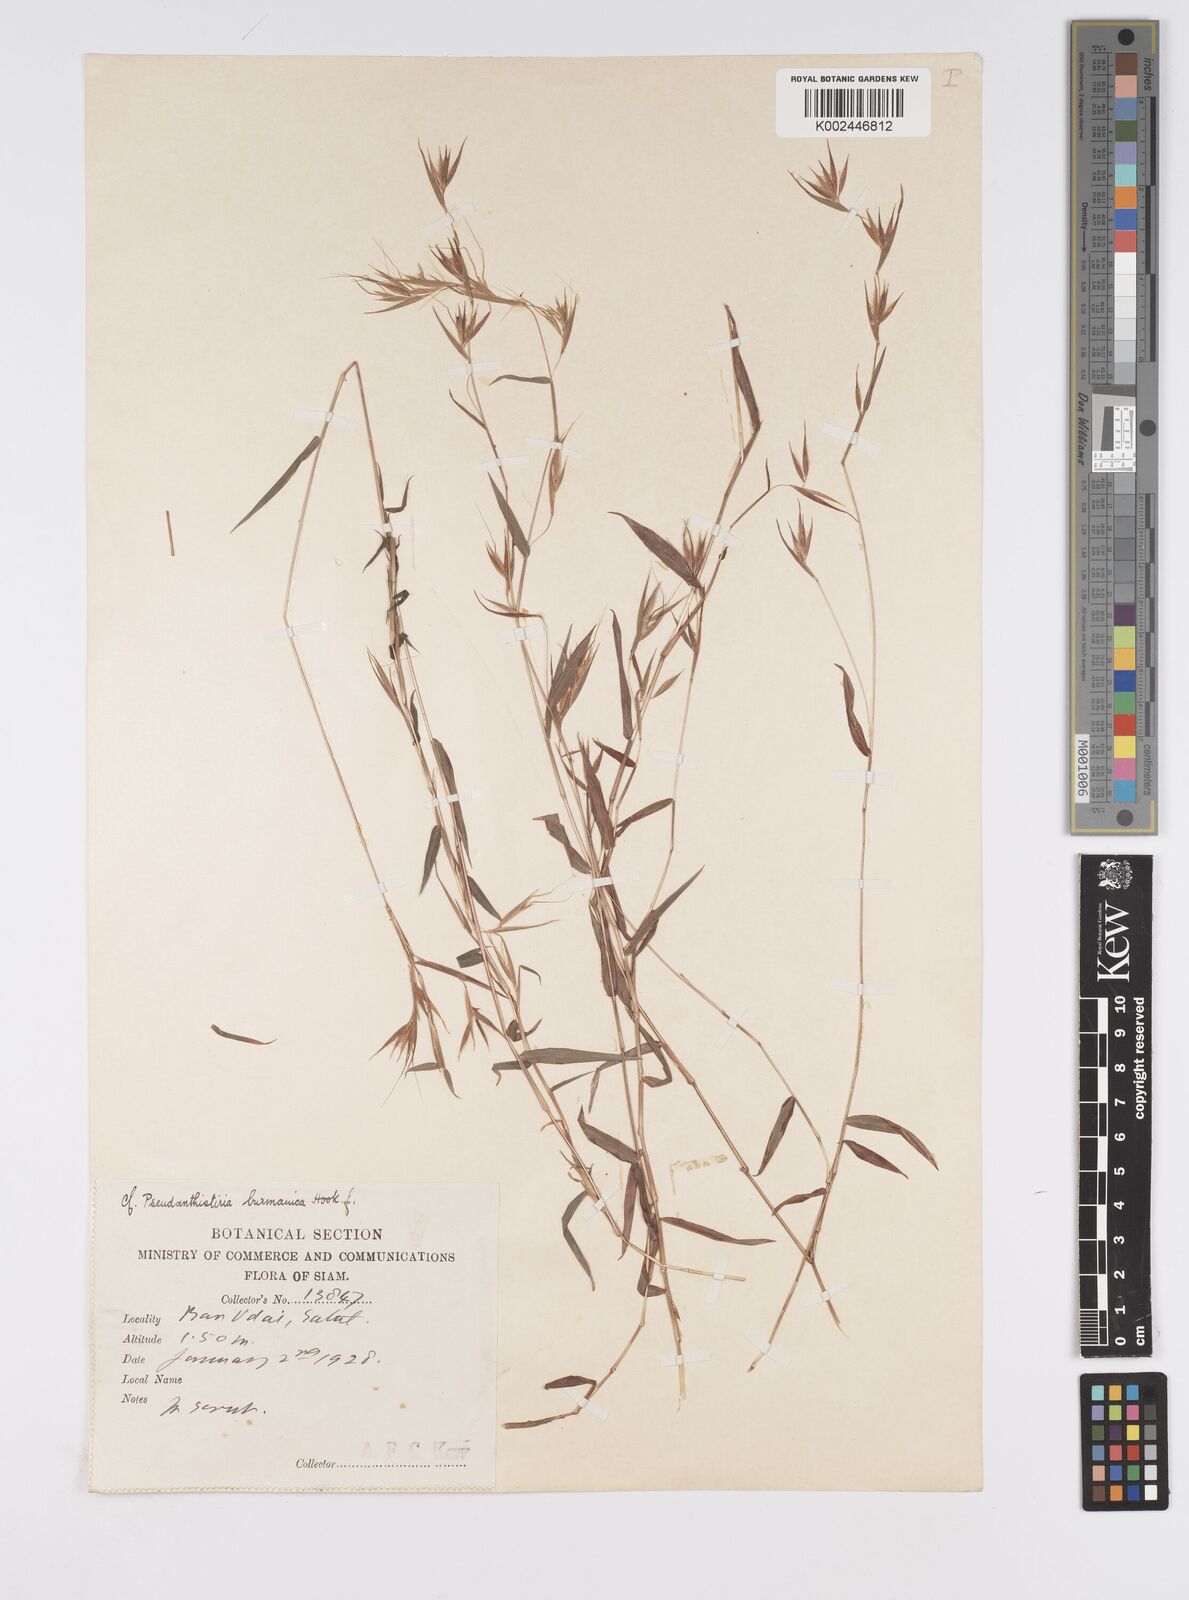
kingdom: Plantae
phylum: Tracheophyta
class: Liliopsida
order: Poales
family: Poaceae
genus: Pseudanthistiria
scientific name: Pseudanthistiria umbellata
